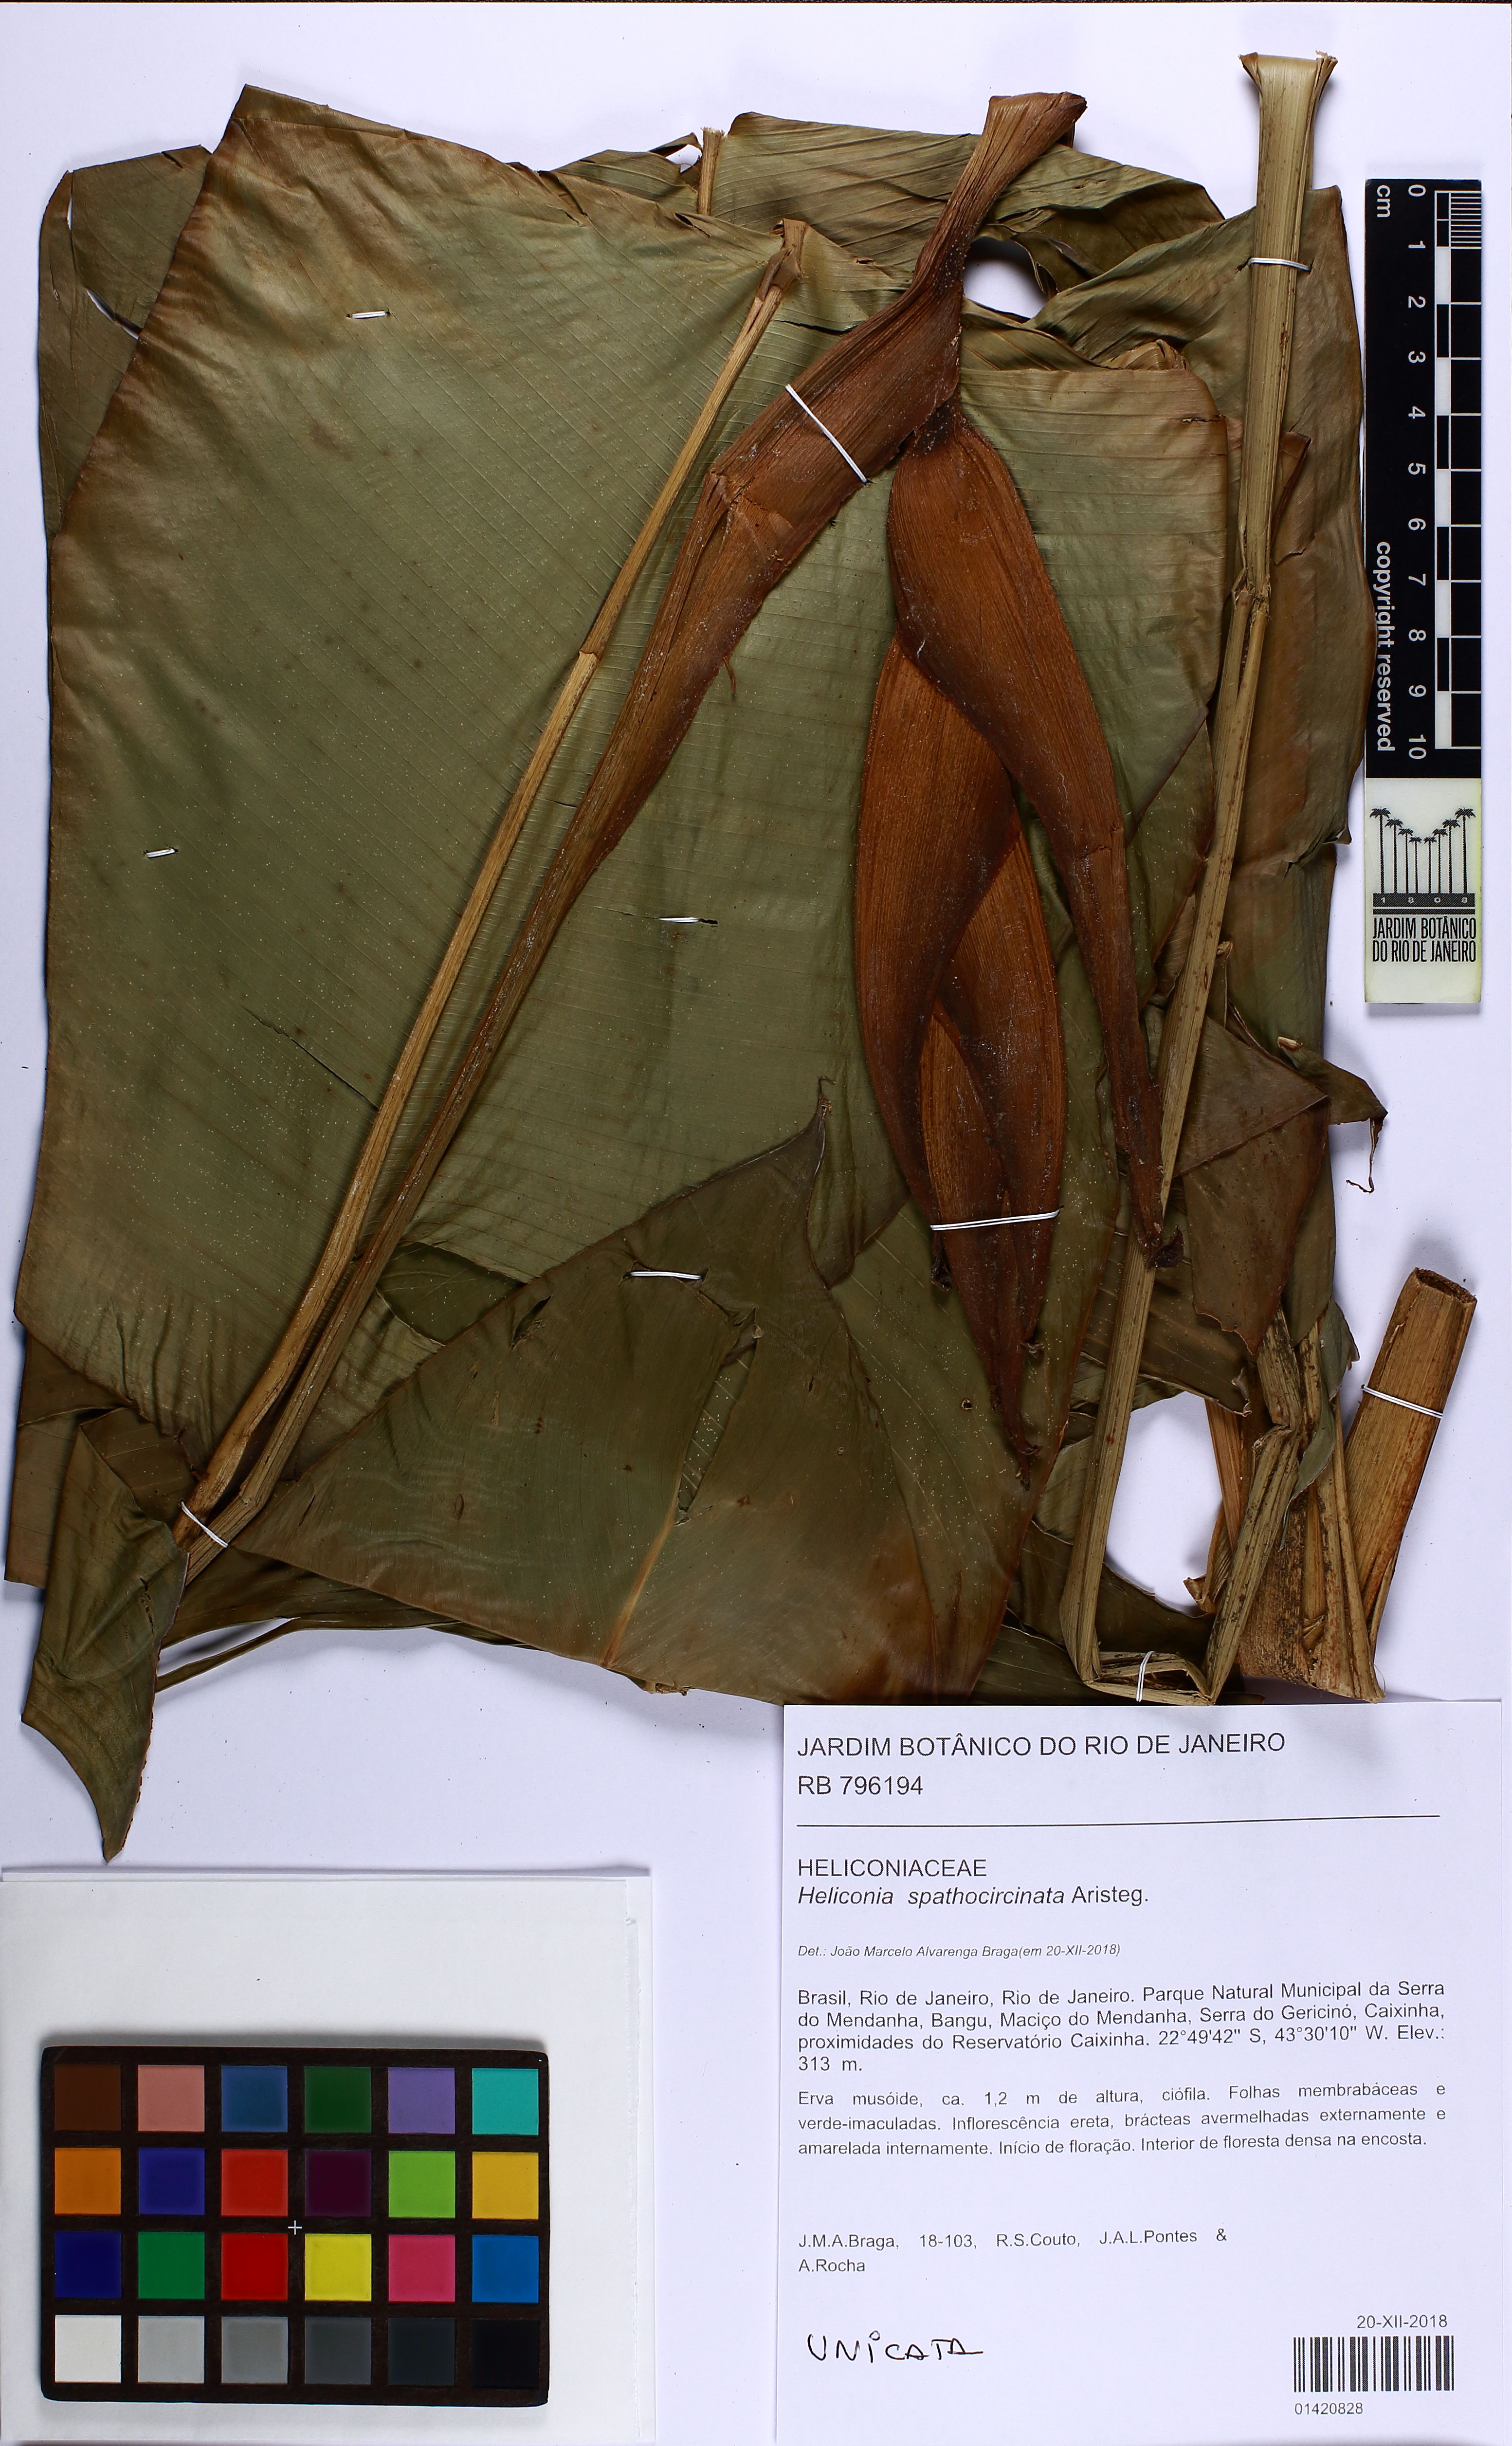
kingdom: Plantae
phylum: Tracheophyta
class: Liliopsida
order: Zingiberales
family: Heliconiaceae
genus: Heliconia
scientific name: Heliconia spathocircinata
